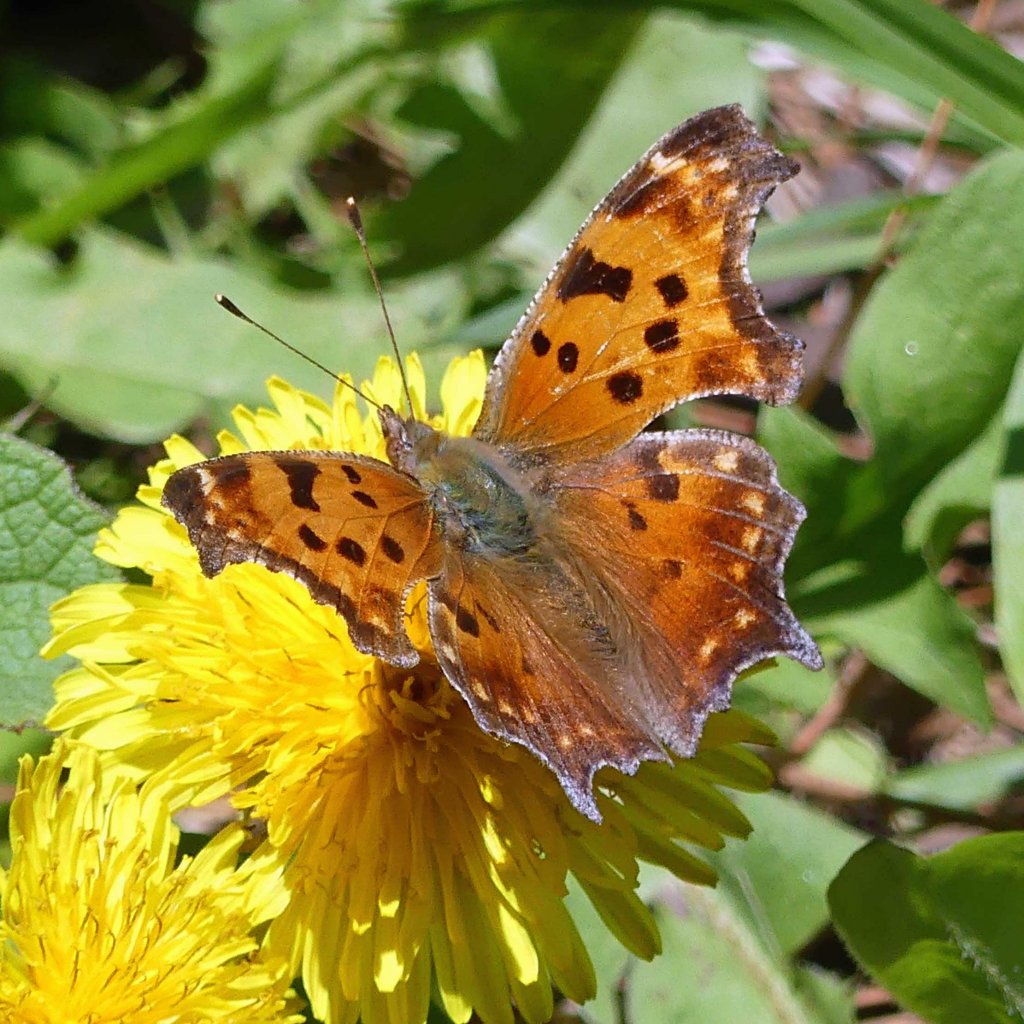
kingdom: Animalia
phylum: Arthropoda
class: Insecta
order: Lepidoptera
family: Nymphalidae
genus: Polygonia
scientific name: Polygonia comma
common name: Eastern Comma
